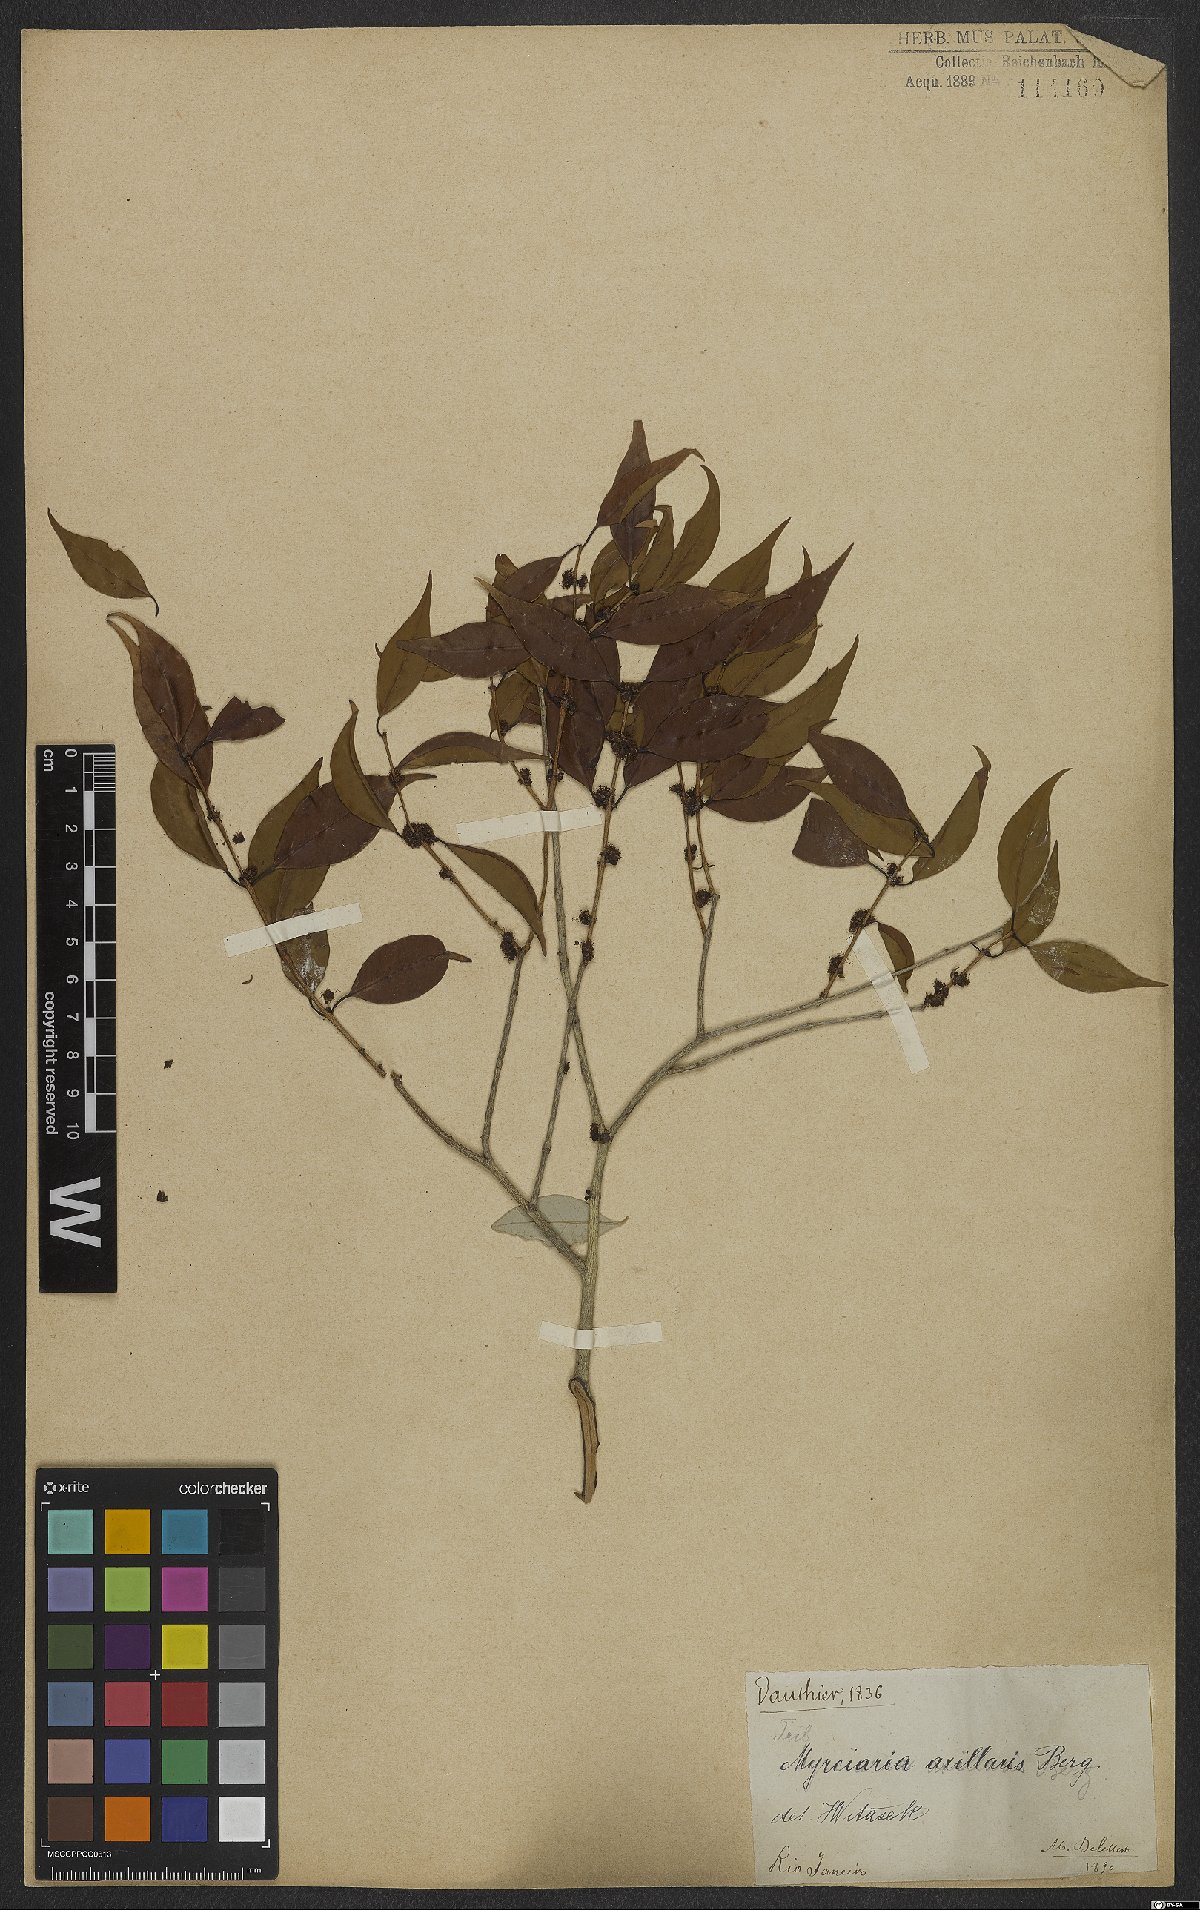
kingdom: Plantae
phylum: Tracheophyta
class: Magnoliopsida
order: Myrtales
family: Myrtaceae
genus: Myrciaria
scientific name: Myrciaria axillaris
